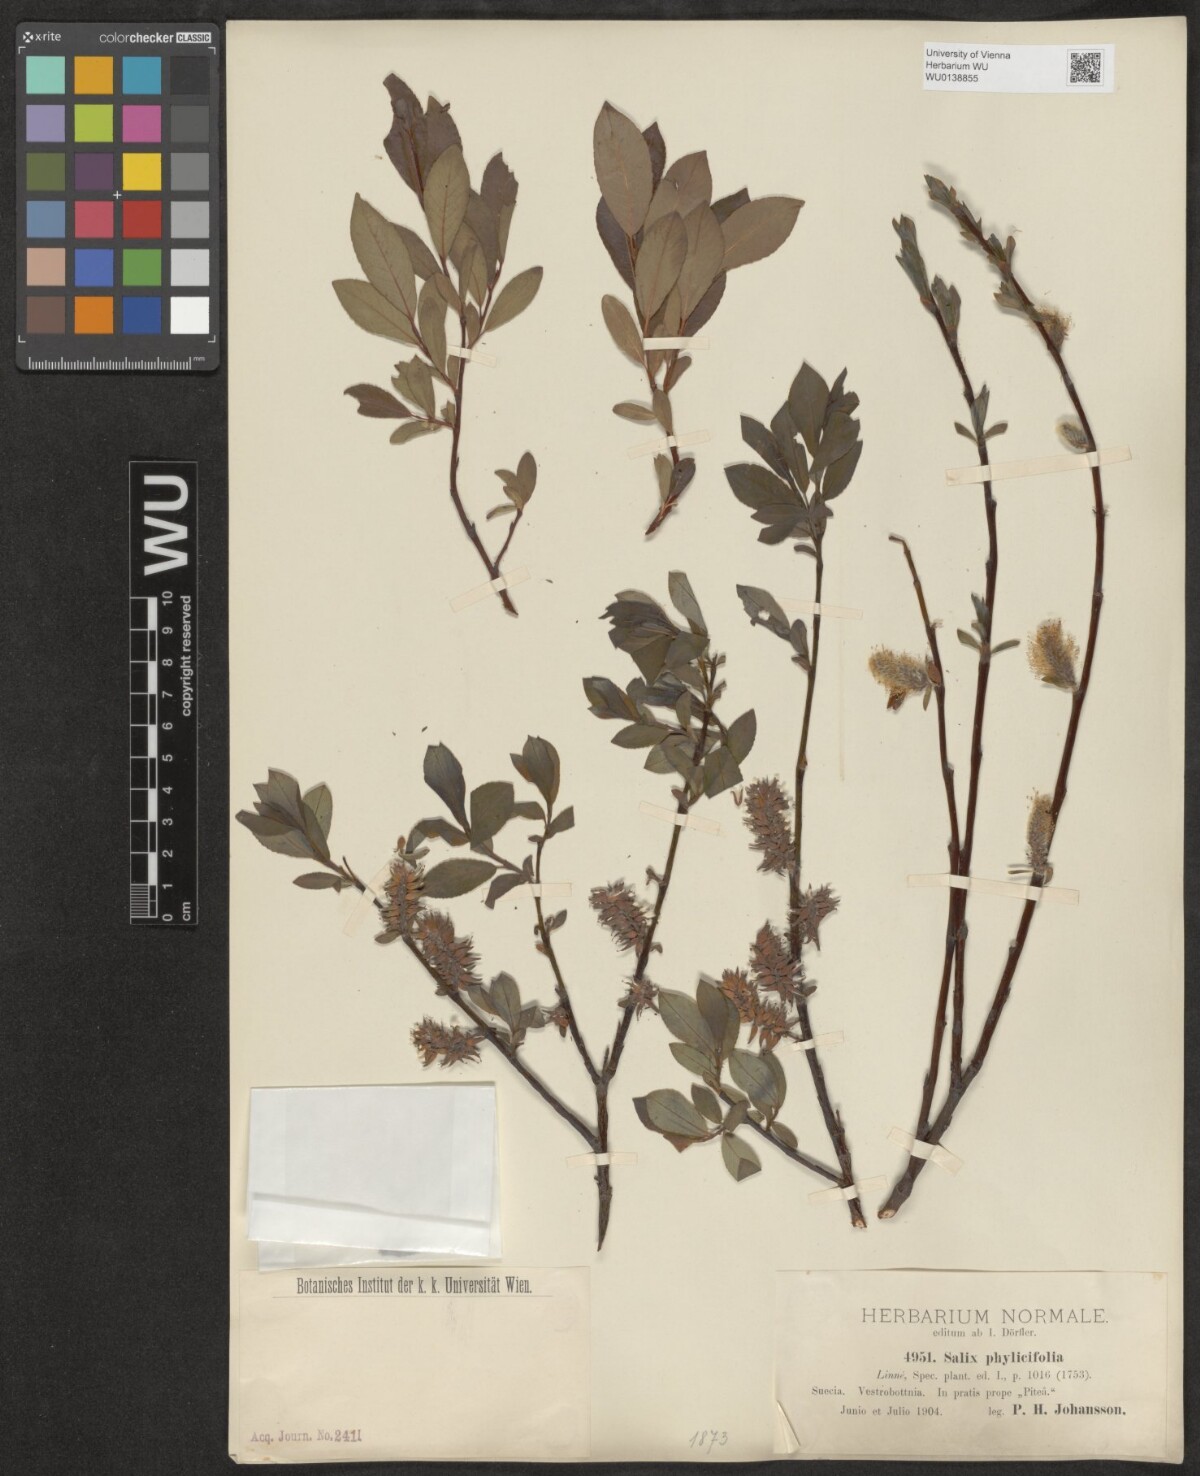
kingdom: Plantae
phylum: Tracheophyta
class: Magnoliopsida
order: Malpighiales
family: Salicaceae
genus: Salix
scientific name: Salix phylicifolia
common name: Tea-leaved willow
